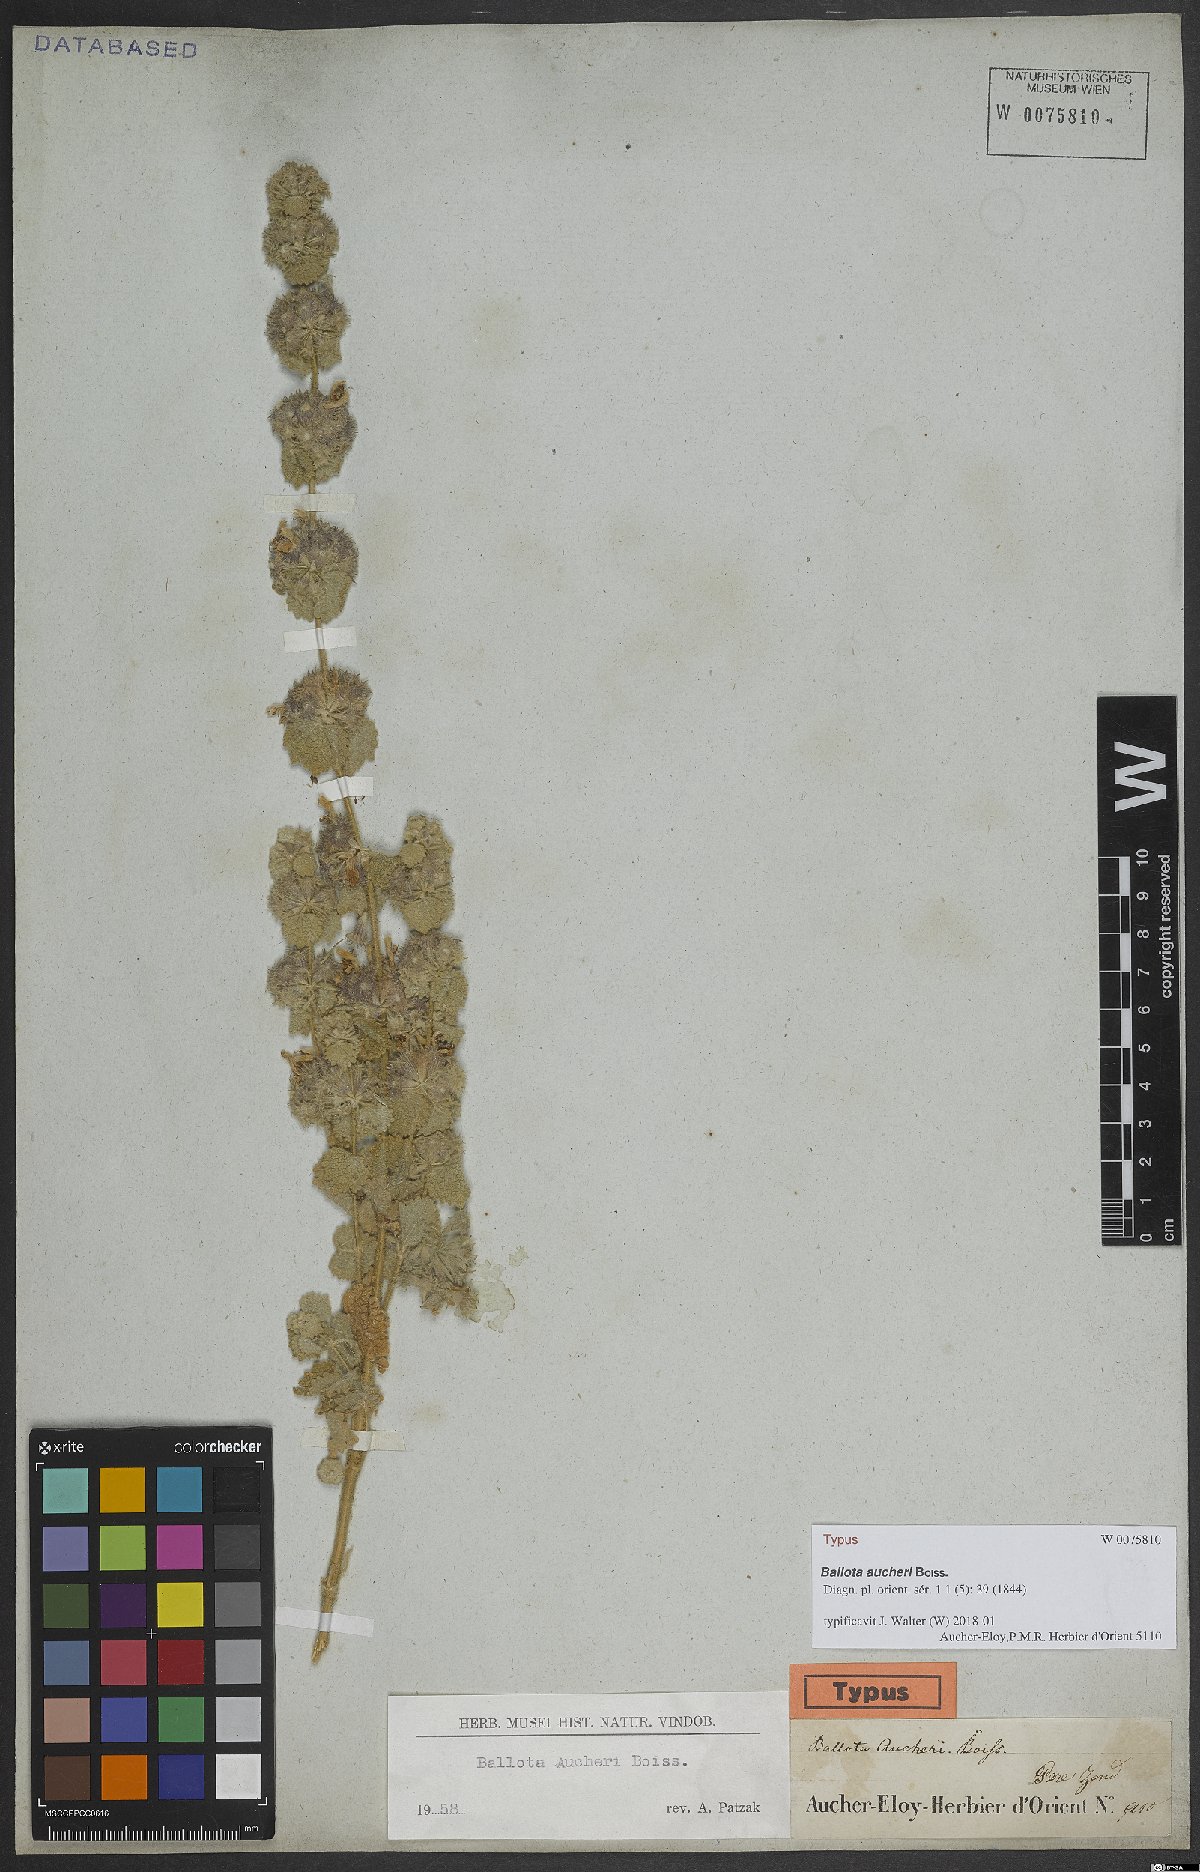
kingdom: Plantae
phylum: Tracheophyta
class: Magnoliopsida
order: Lamiales
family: Lamiaceae
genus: Pseudodictamnus
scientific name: Pseudodictamnus aucheri
